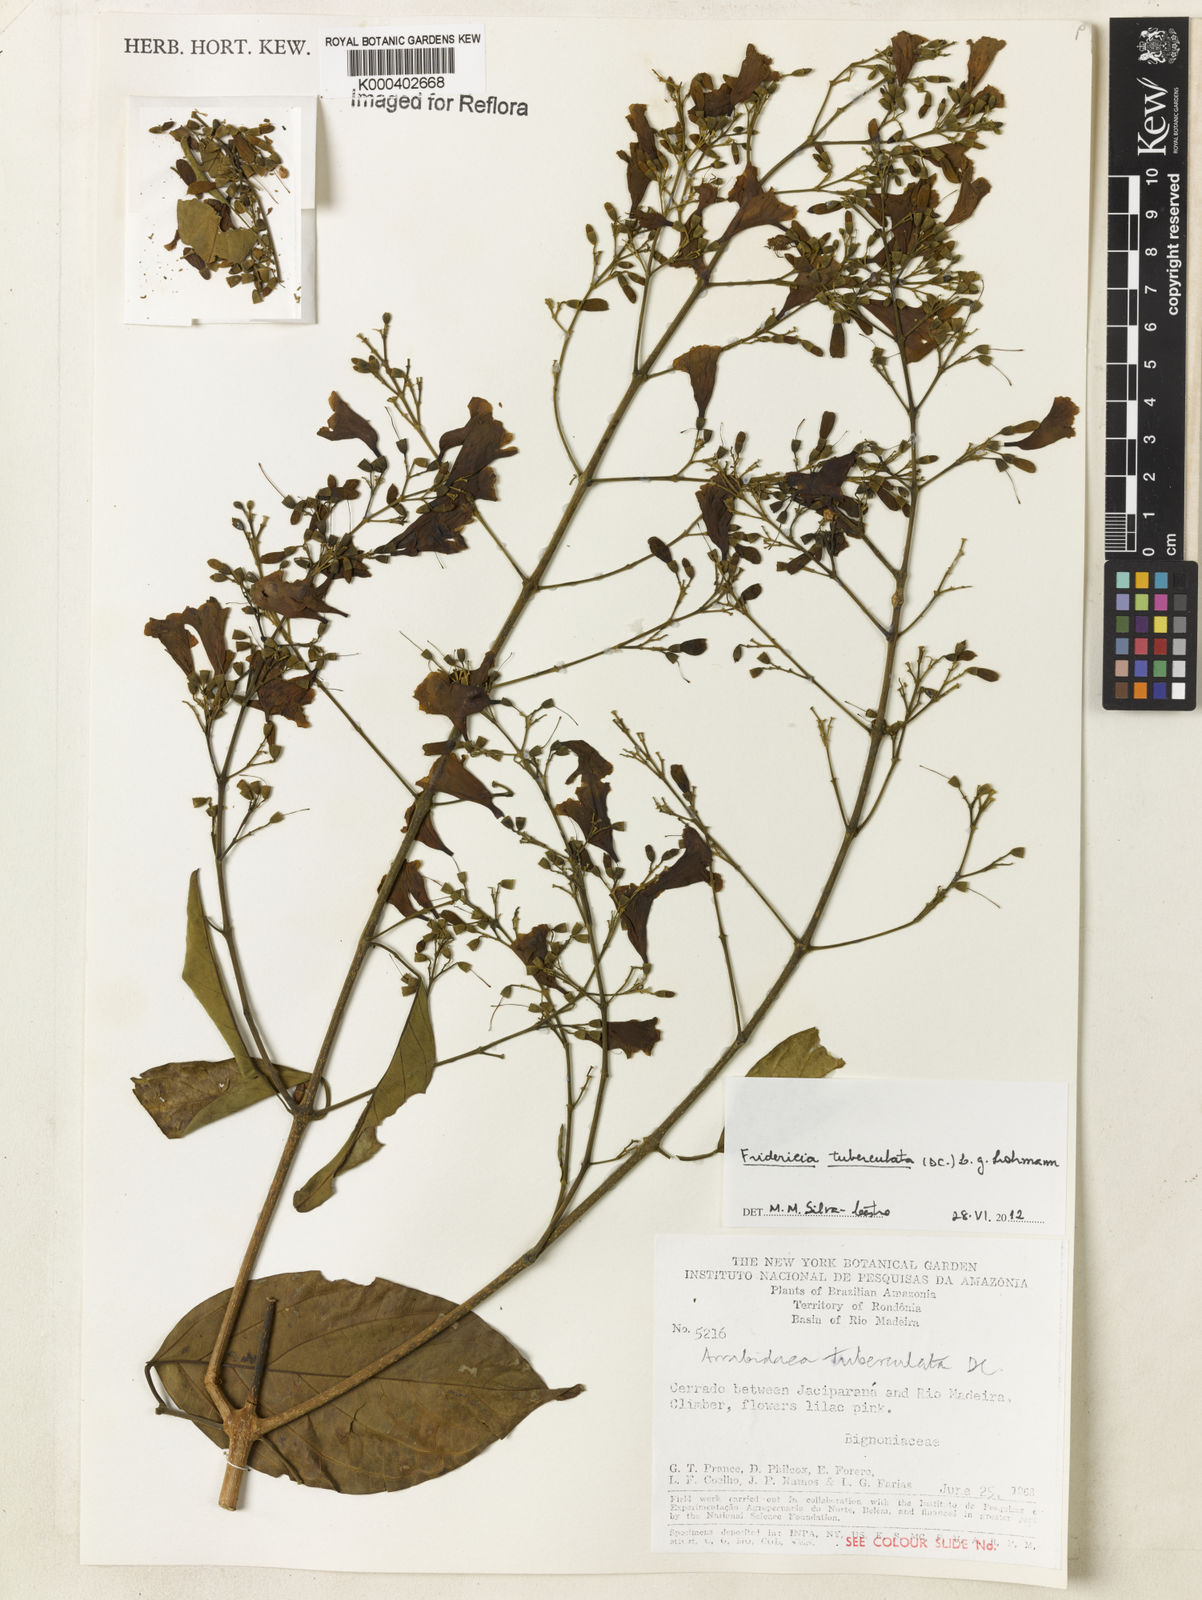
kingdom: Plantae
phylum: Tracheophyta
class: Magnoliopsida
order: Lamiales
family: Bignoniaceae
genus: Fridericia
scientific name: Fridericia tuberculata
